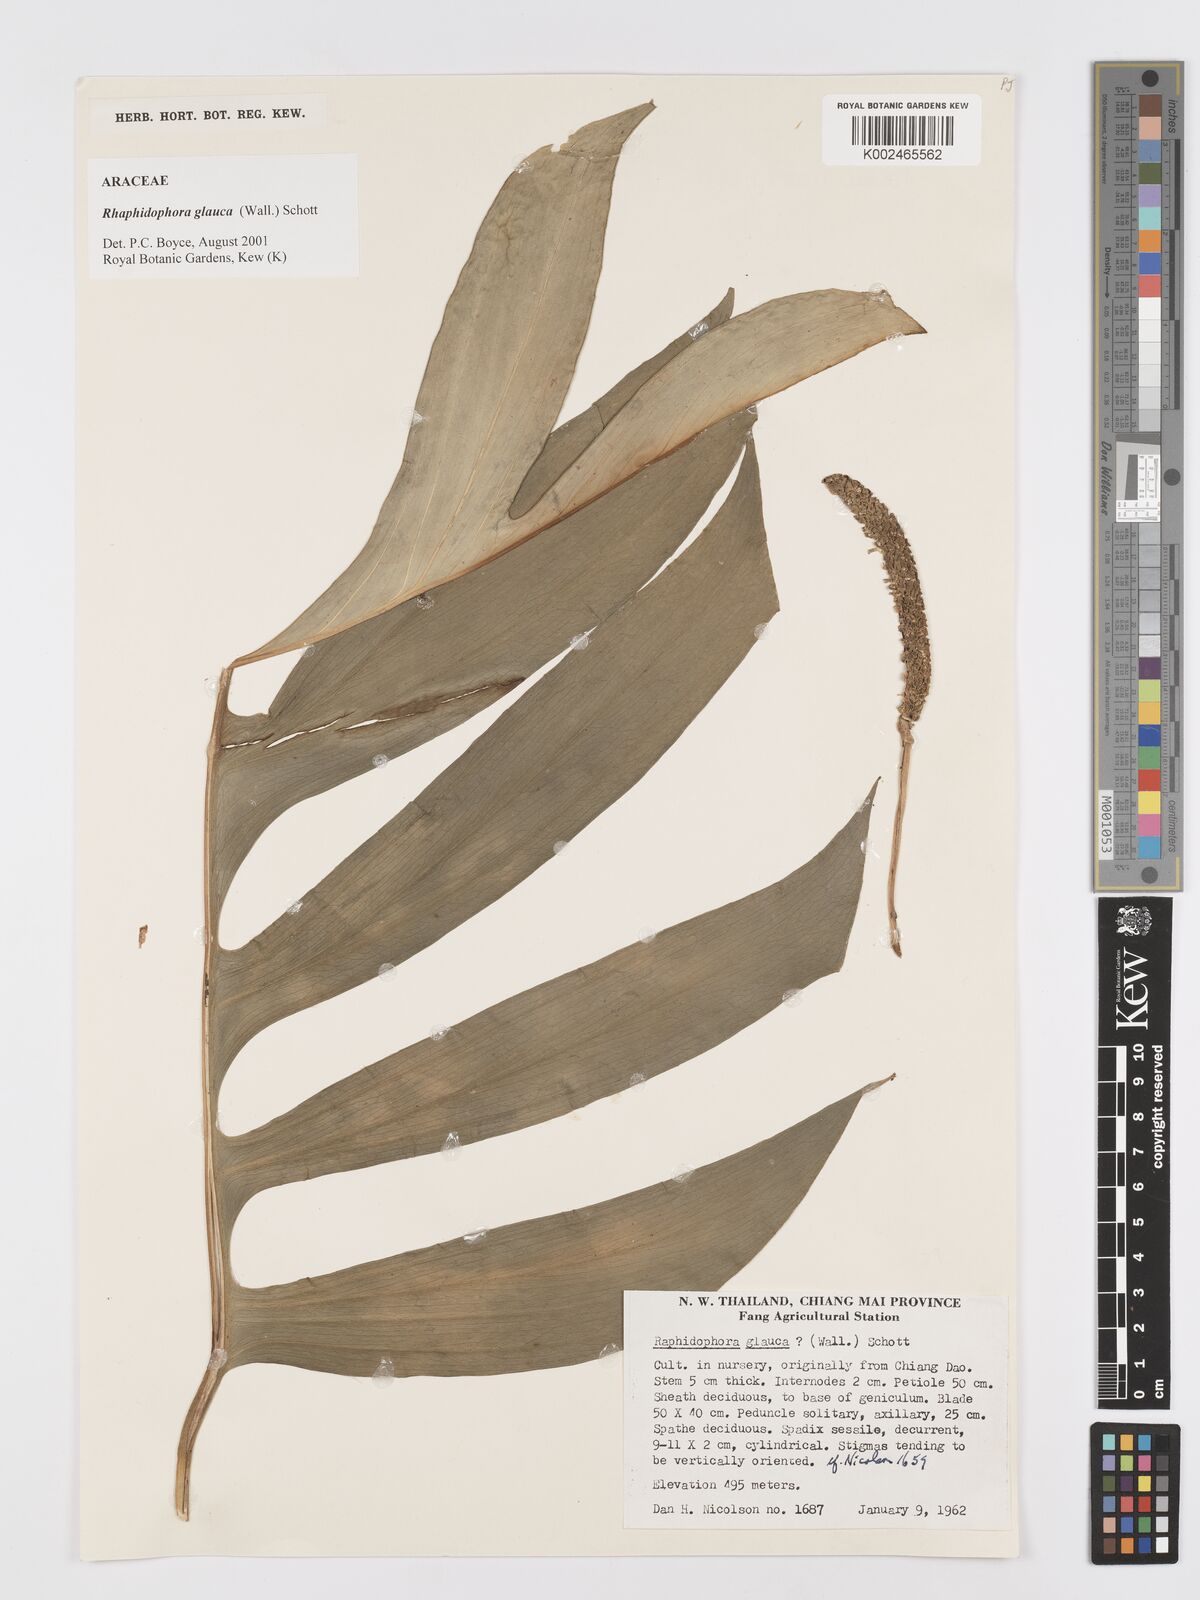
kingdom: Plantae
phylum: Tracheophyta
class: Liliopsida
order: Alismatales
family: Araceae
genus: Rhaphidophora
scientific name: Rhaphidophora glauca
